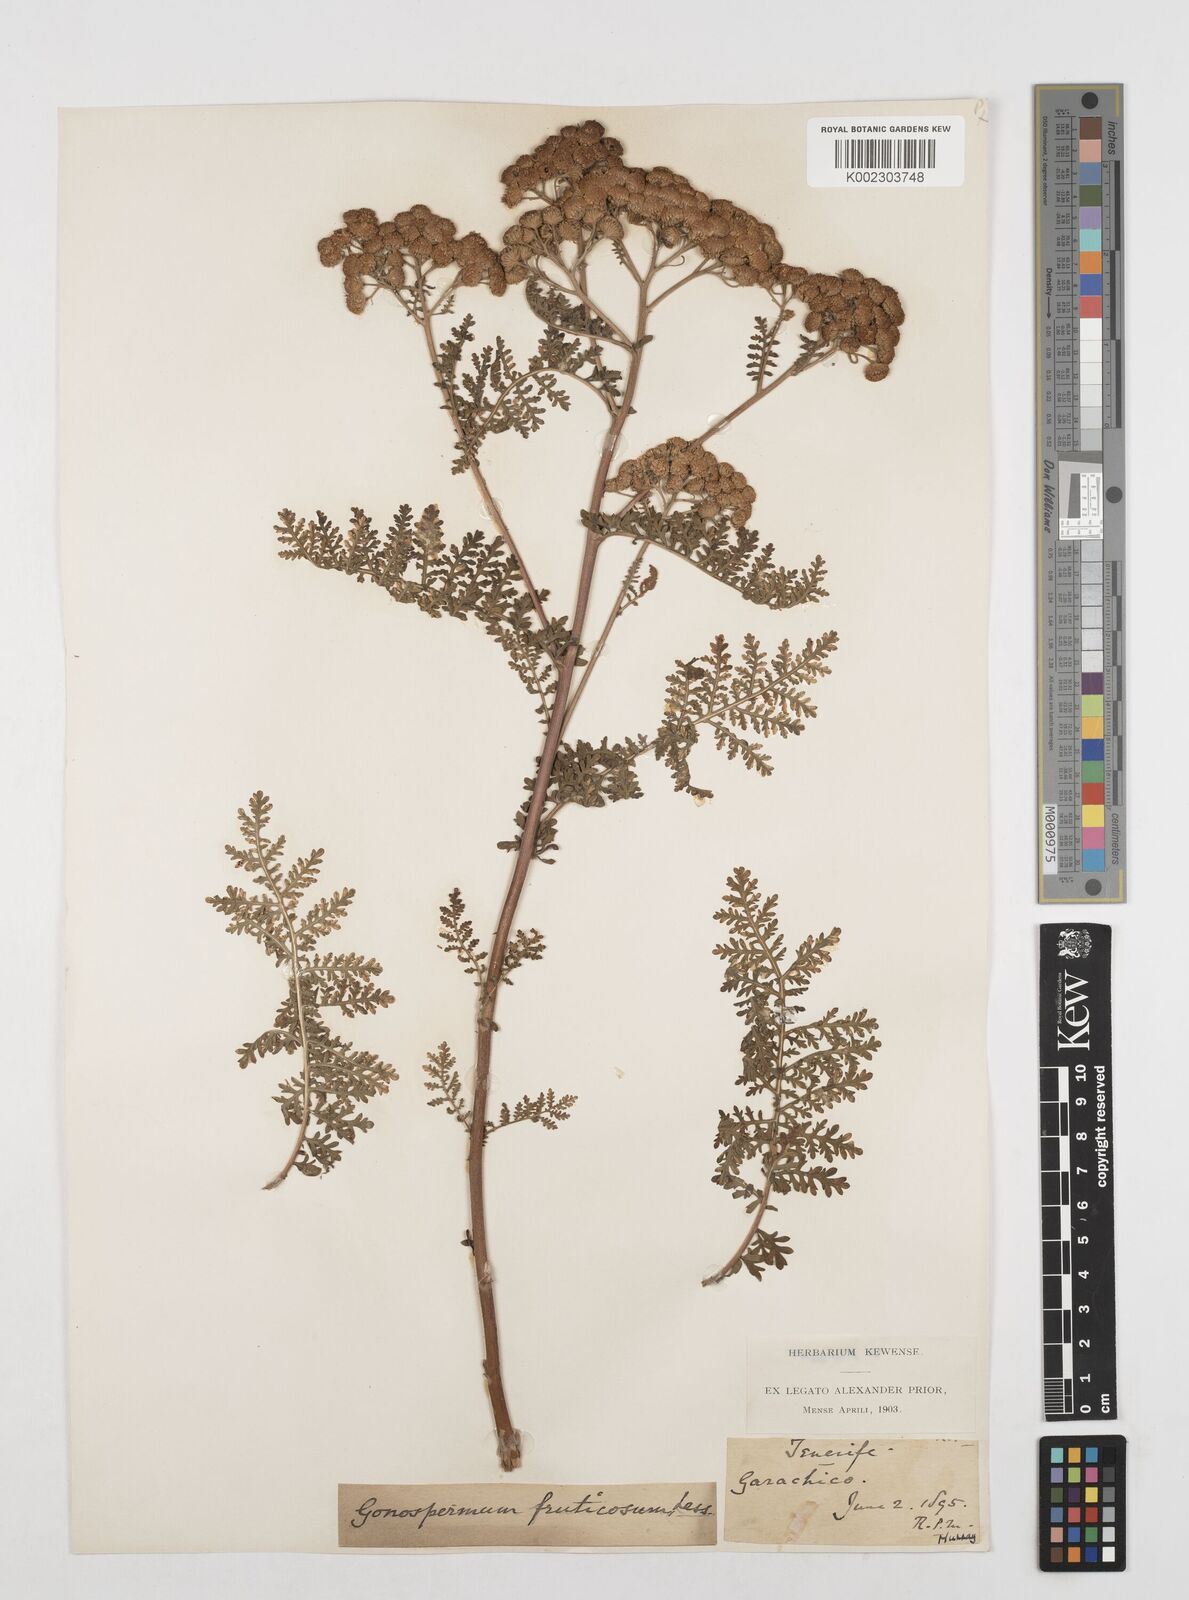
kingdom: Plantae
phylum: Tracheophyta
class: Magnoliopsida
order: Asterales
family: Asteraceae
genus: Gonospermum
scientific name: Gonospermum fruticosum
